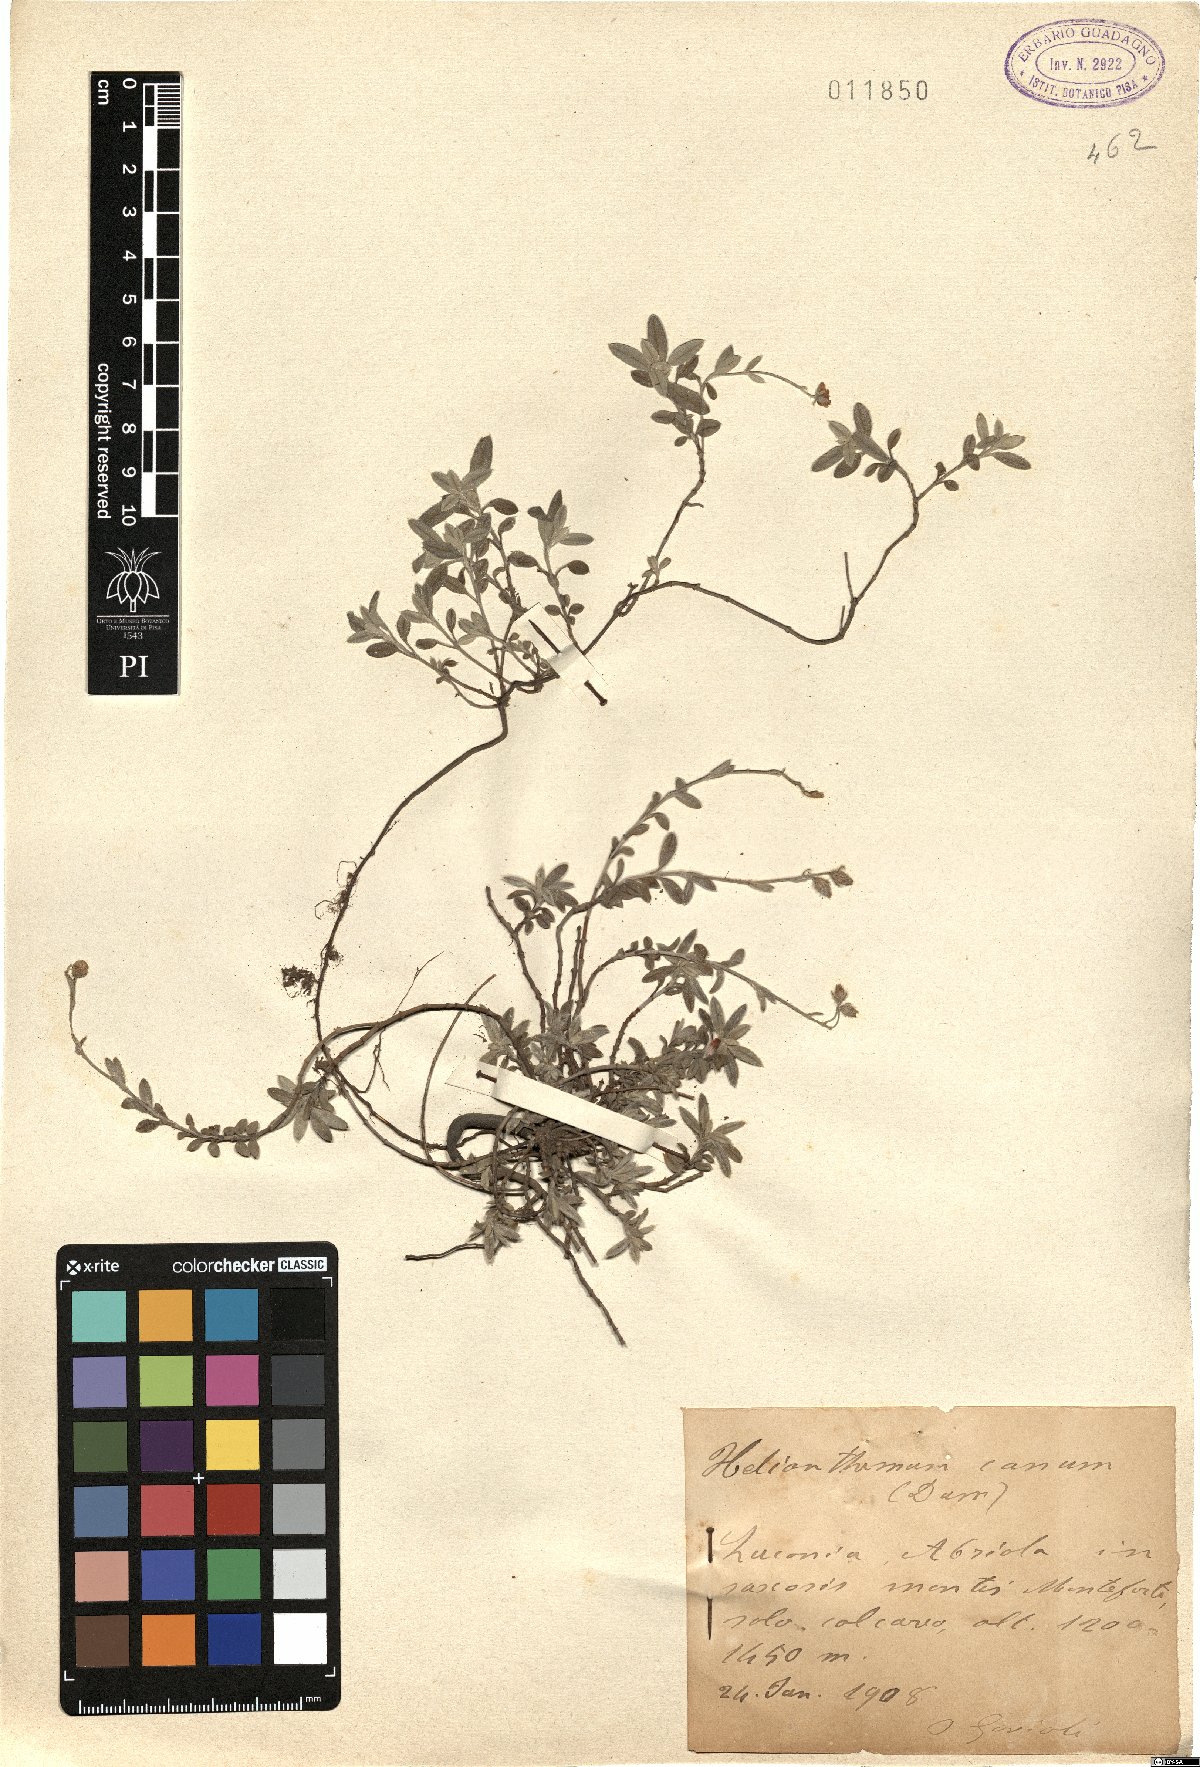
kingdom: Plantae
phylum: Tracheophyta
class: Magnoliopsida
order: Malvales
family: Cistaceae
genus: Helianthemum
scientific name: Helianthemum canum
